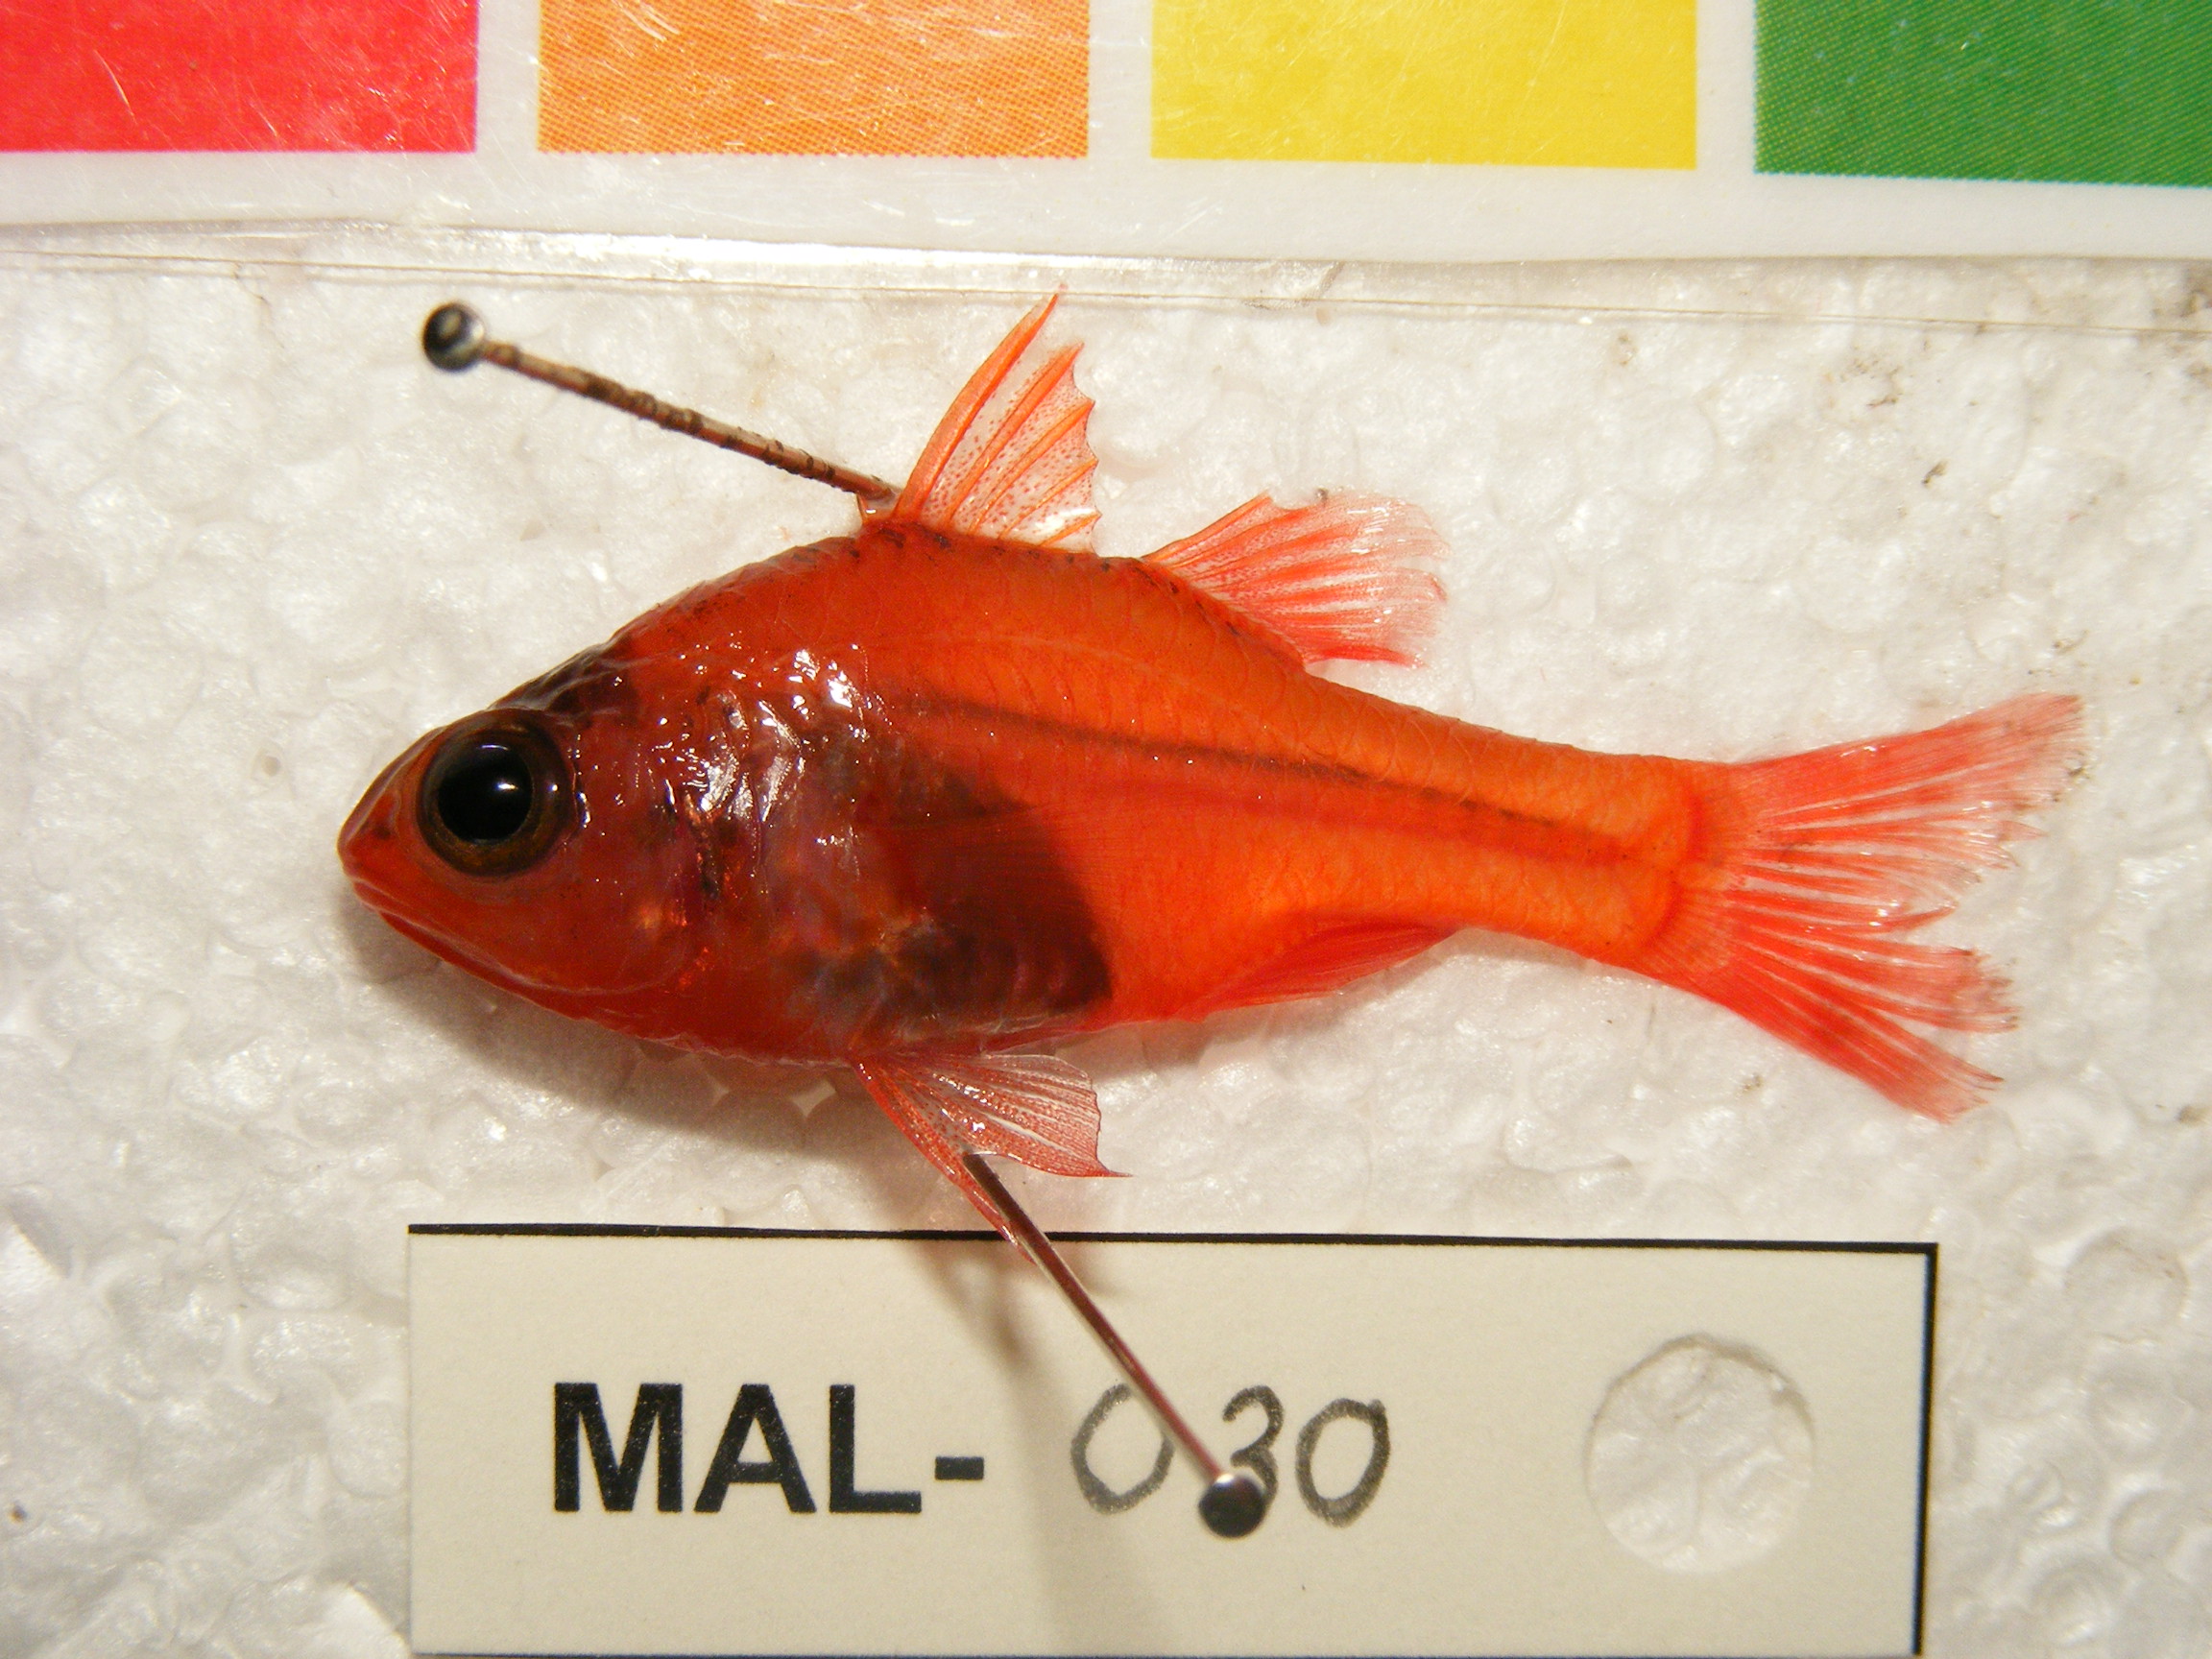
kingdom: Animalia
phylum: Chordata
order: Perciformes
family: Apogonidae
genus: Apogon
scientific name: Apogon crassiceps
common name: Little red cardinalfish
